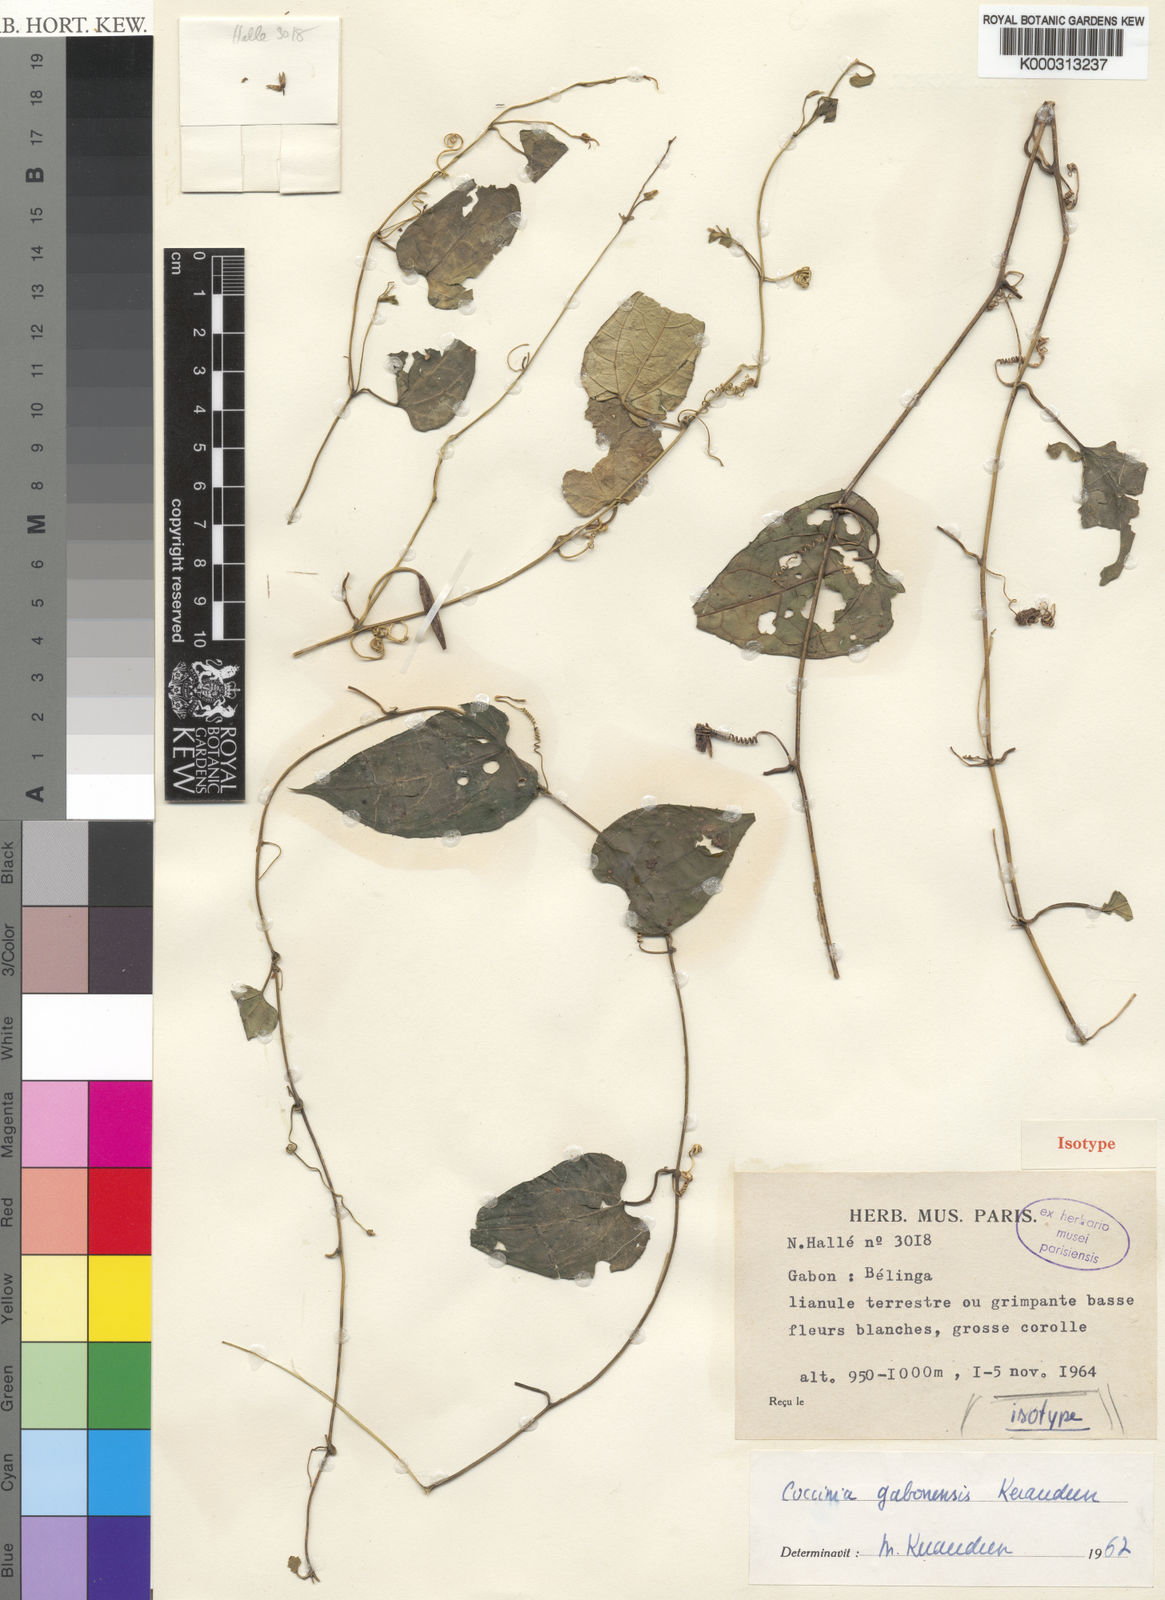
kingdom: Plantae
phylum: Tracheophyta
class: Magnoliopsida
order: Cucurbitales
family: Cucurbitaceae
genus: Coccinia
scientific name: Coccinia gabonensis
